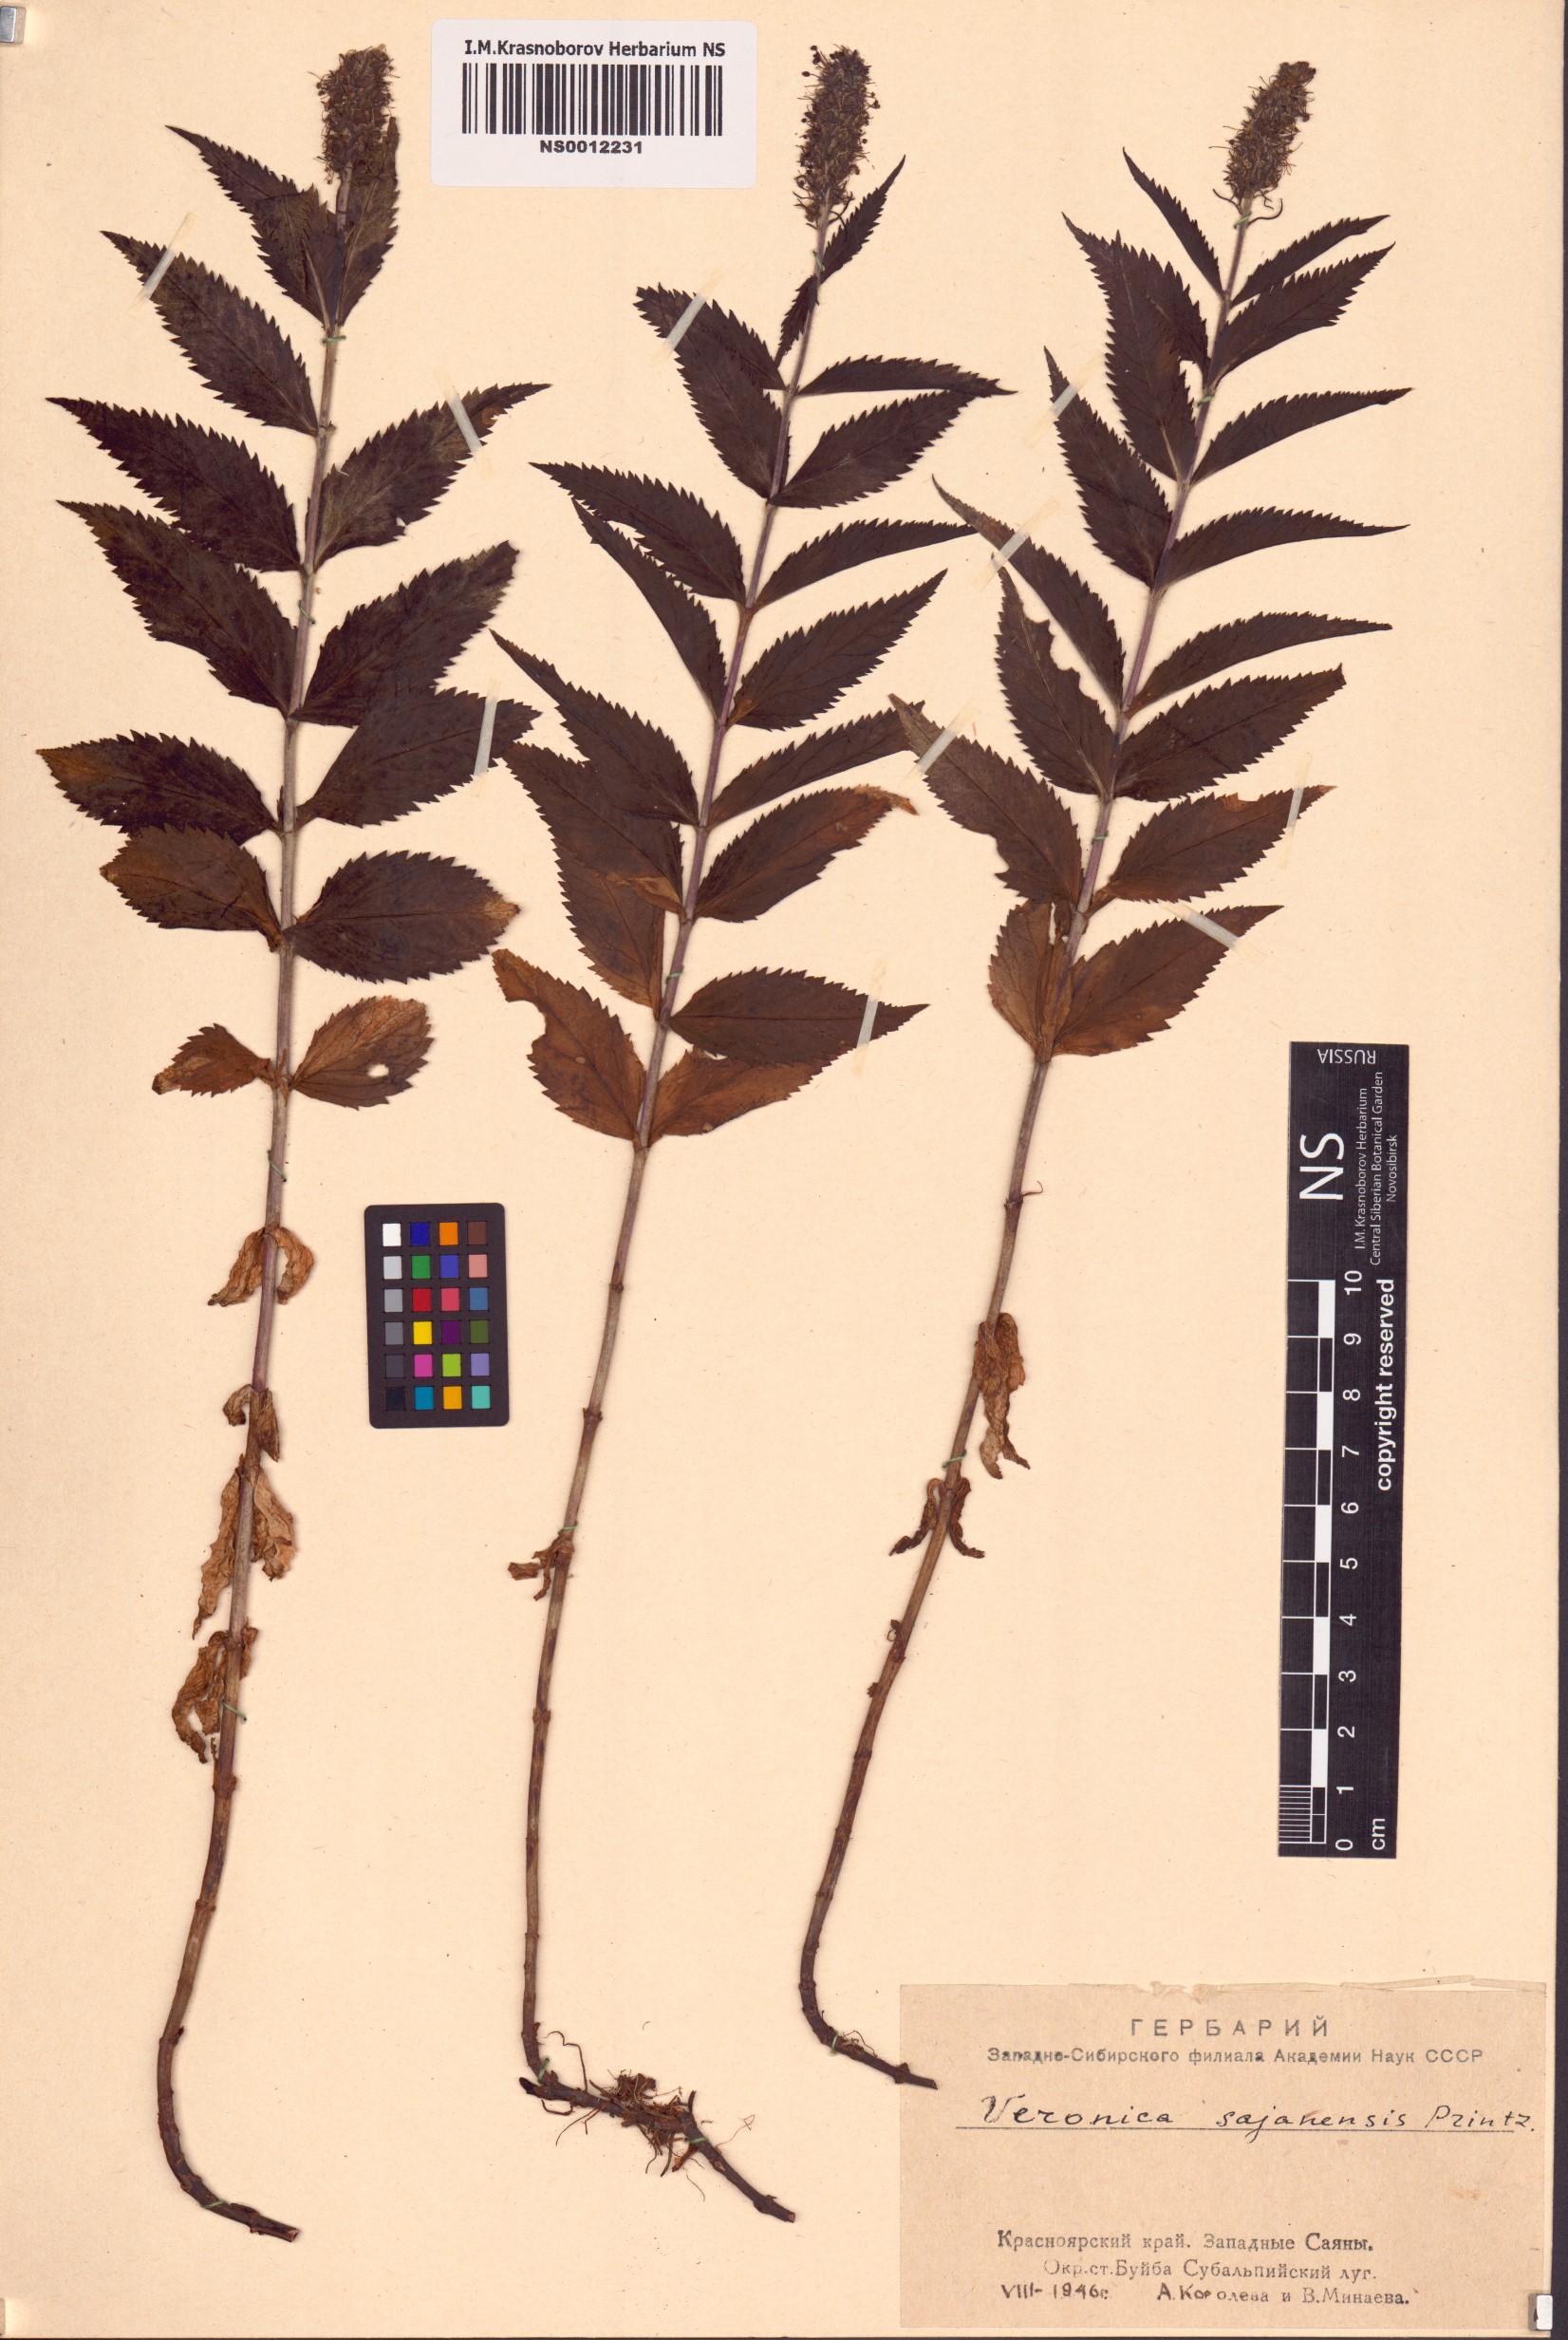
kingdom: Plantae
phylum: Tracheophyta
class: Magnoliopsida
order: Lamiales
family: Plantaginaceae
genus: Veronica
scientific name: Veronica sajanensis
